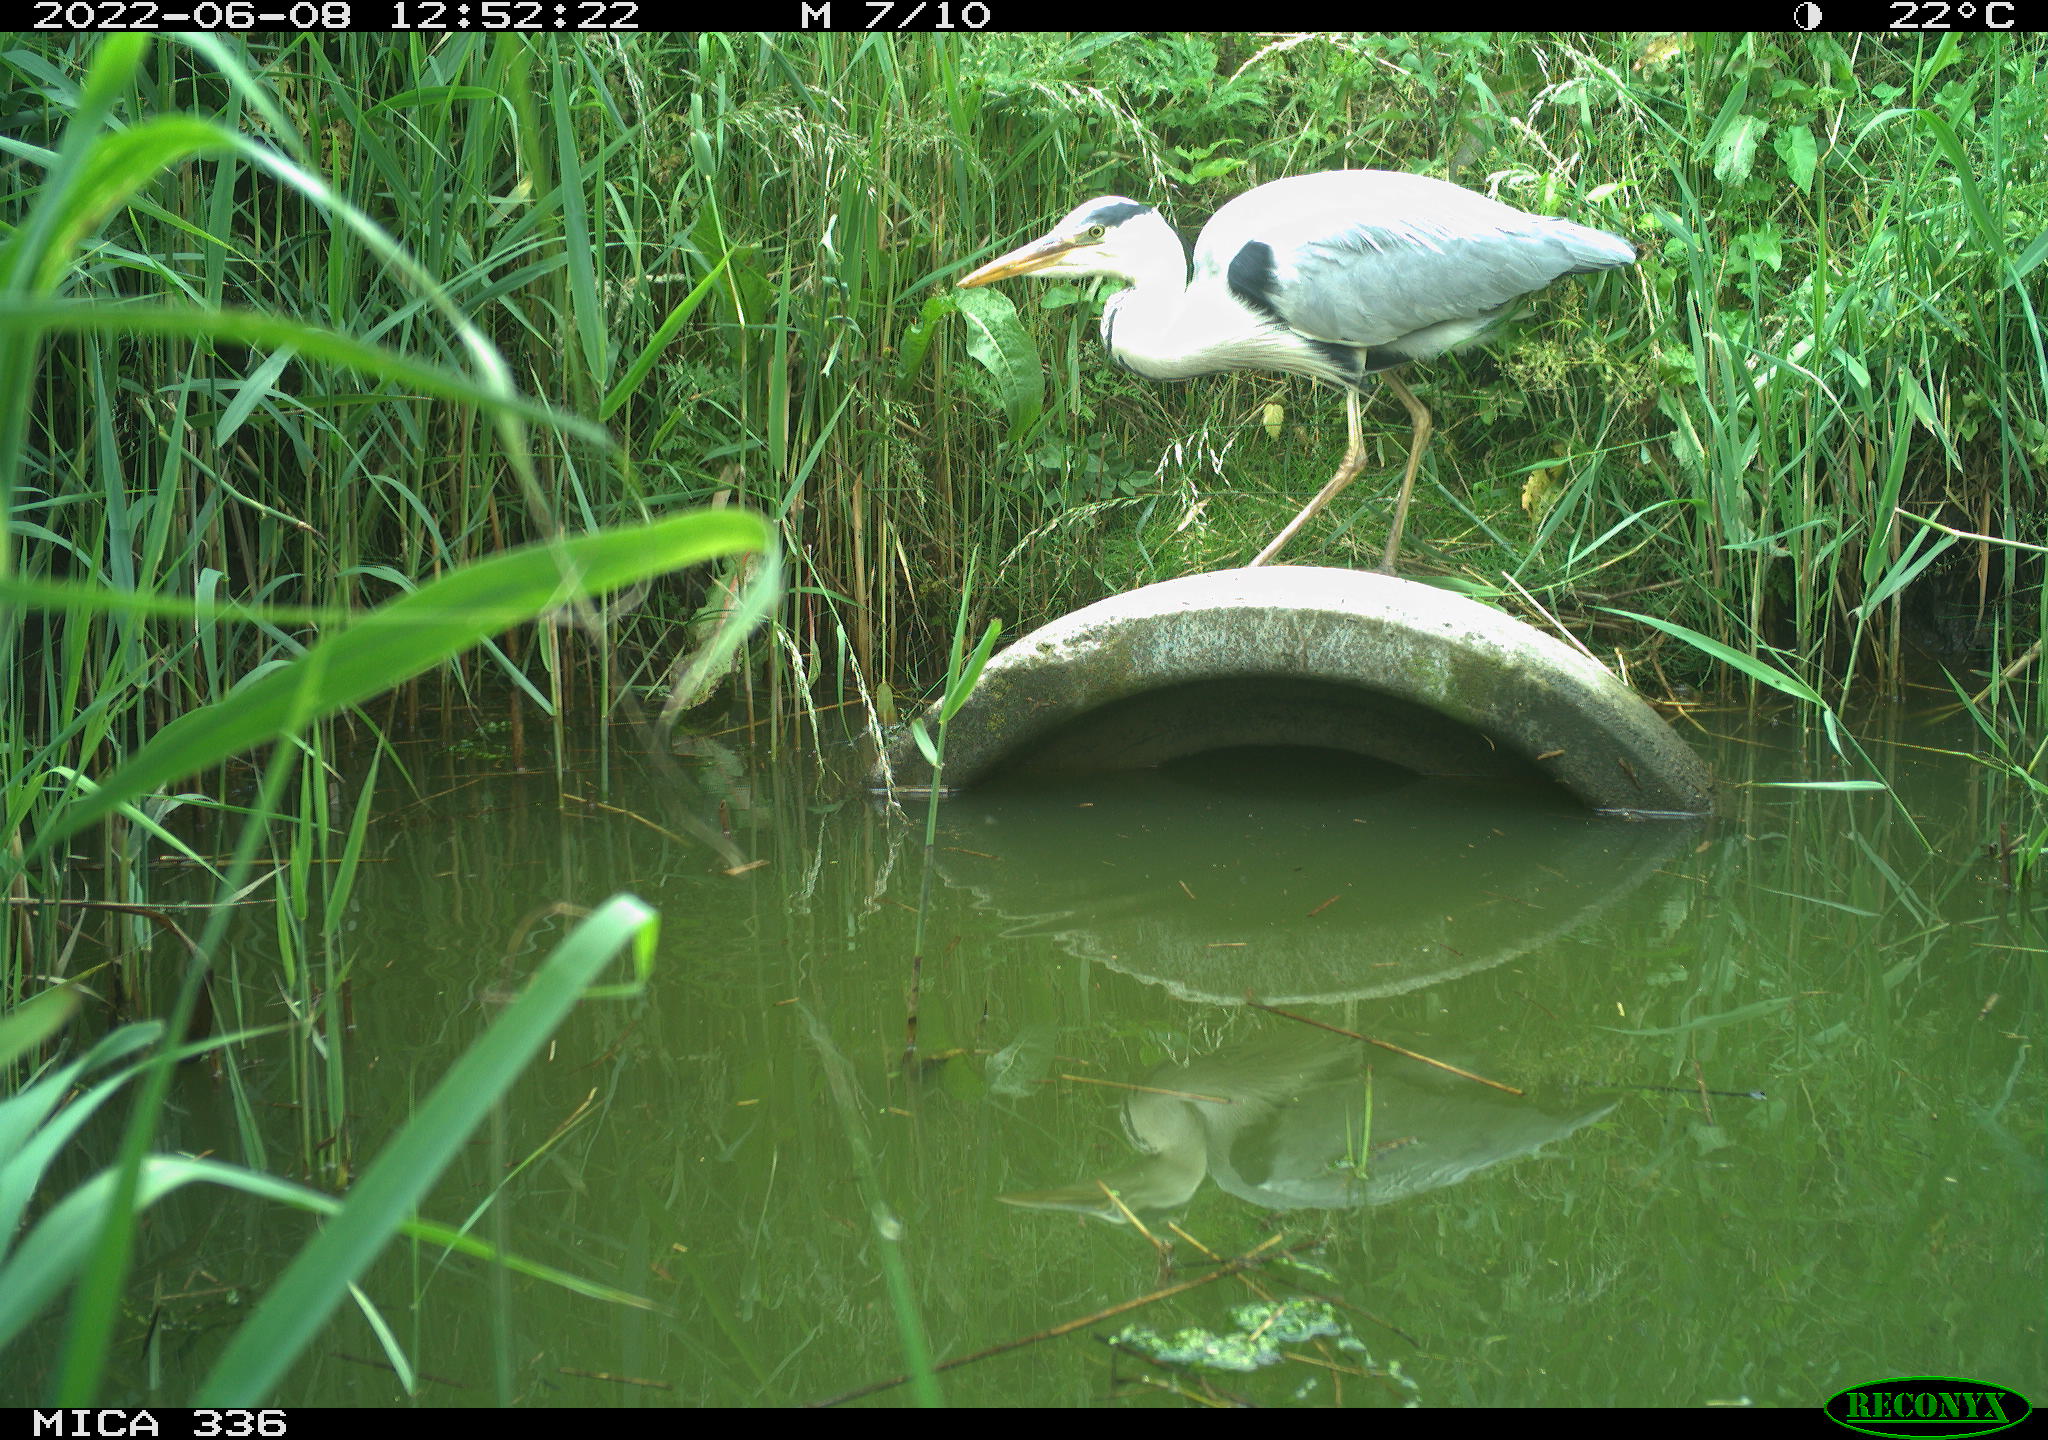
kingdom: Animalia
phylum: Chordata
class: Aves
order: Pelecaniformes
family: Ardeidae
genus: Ardea
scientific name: Ardea cinerea
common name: Grey heron
